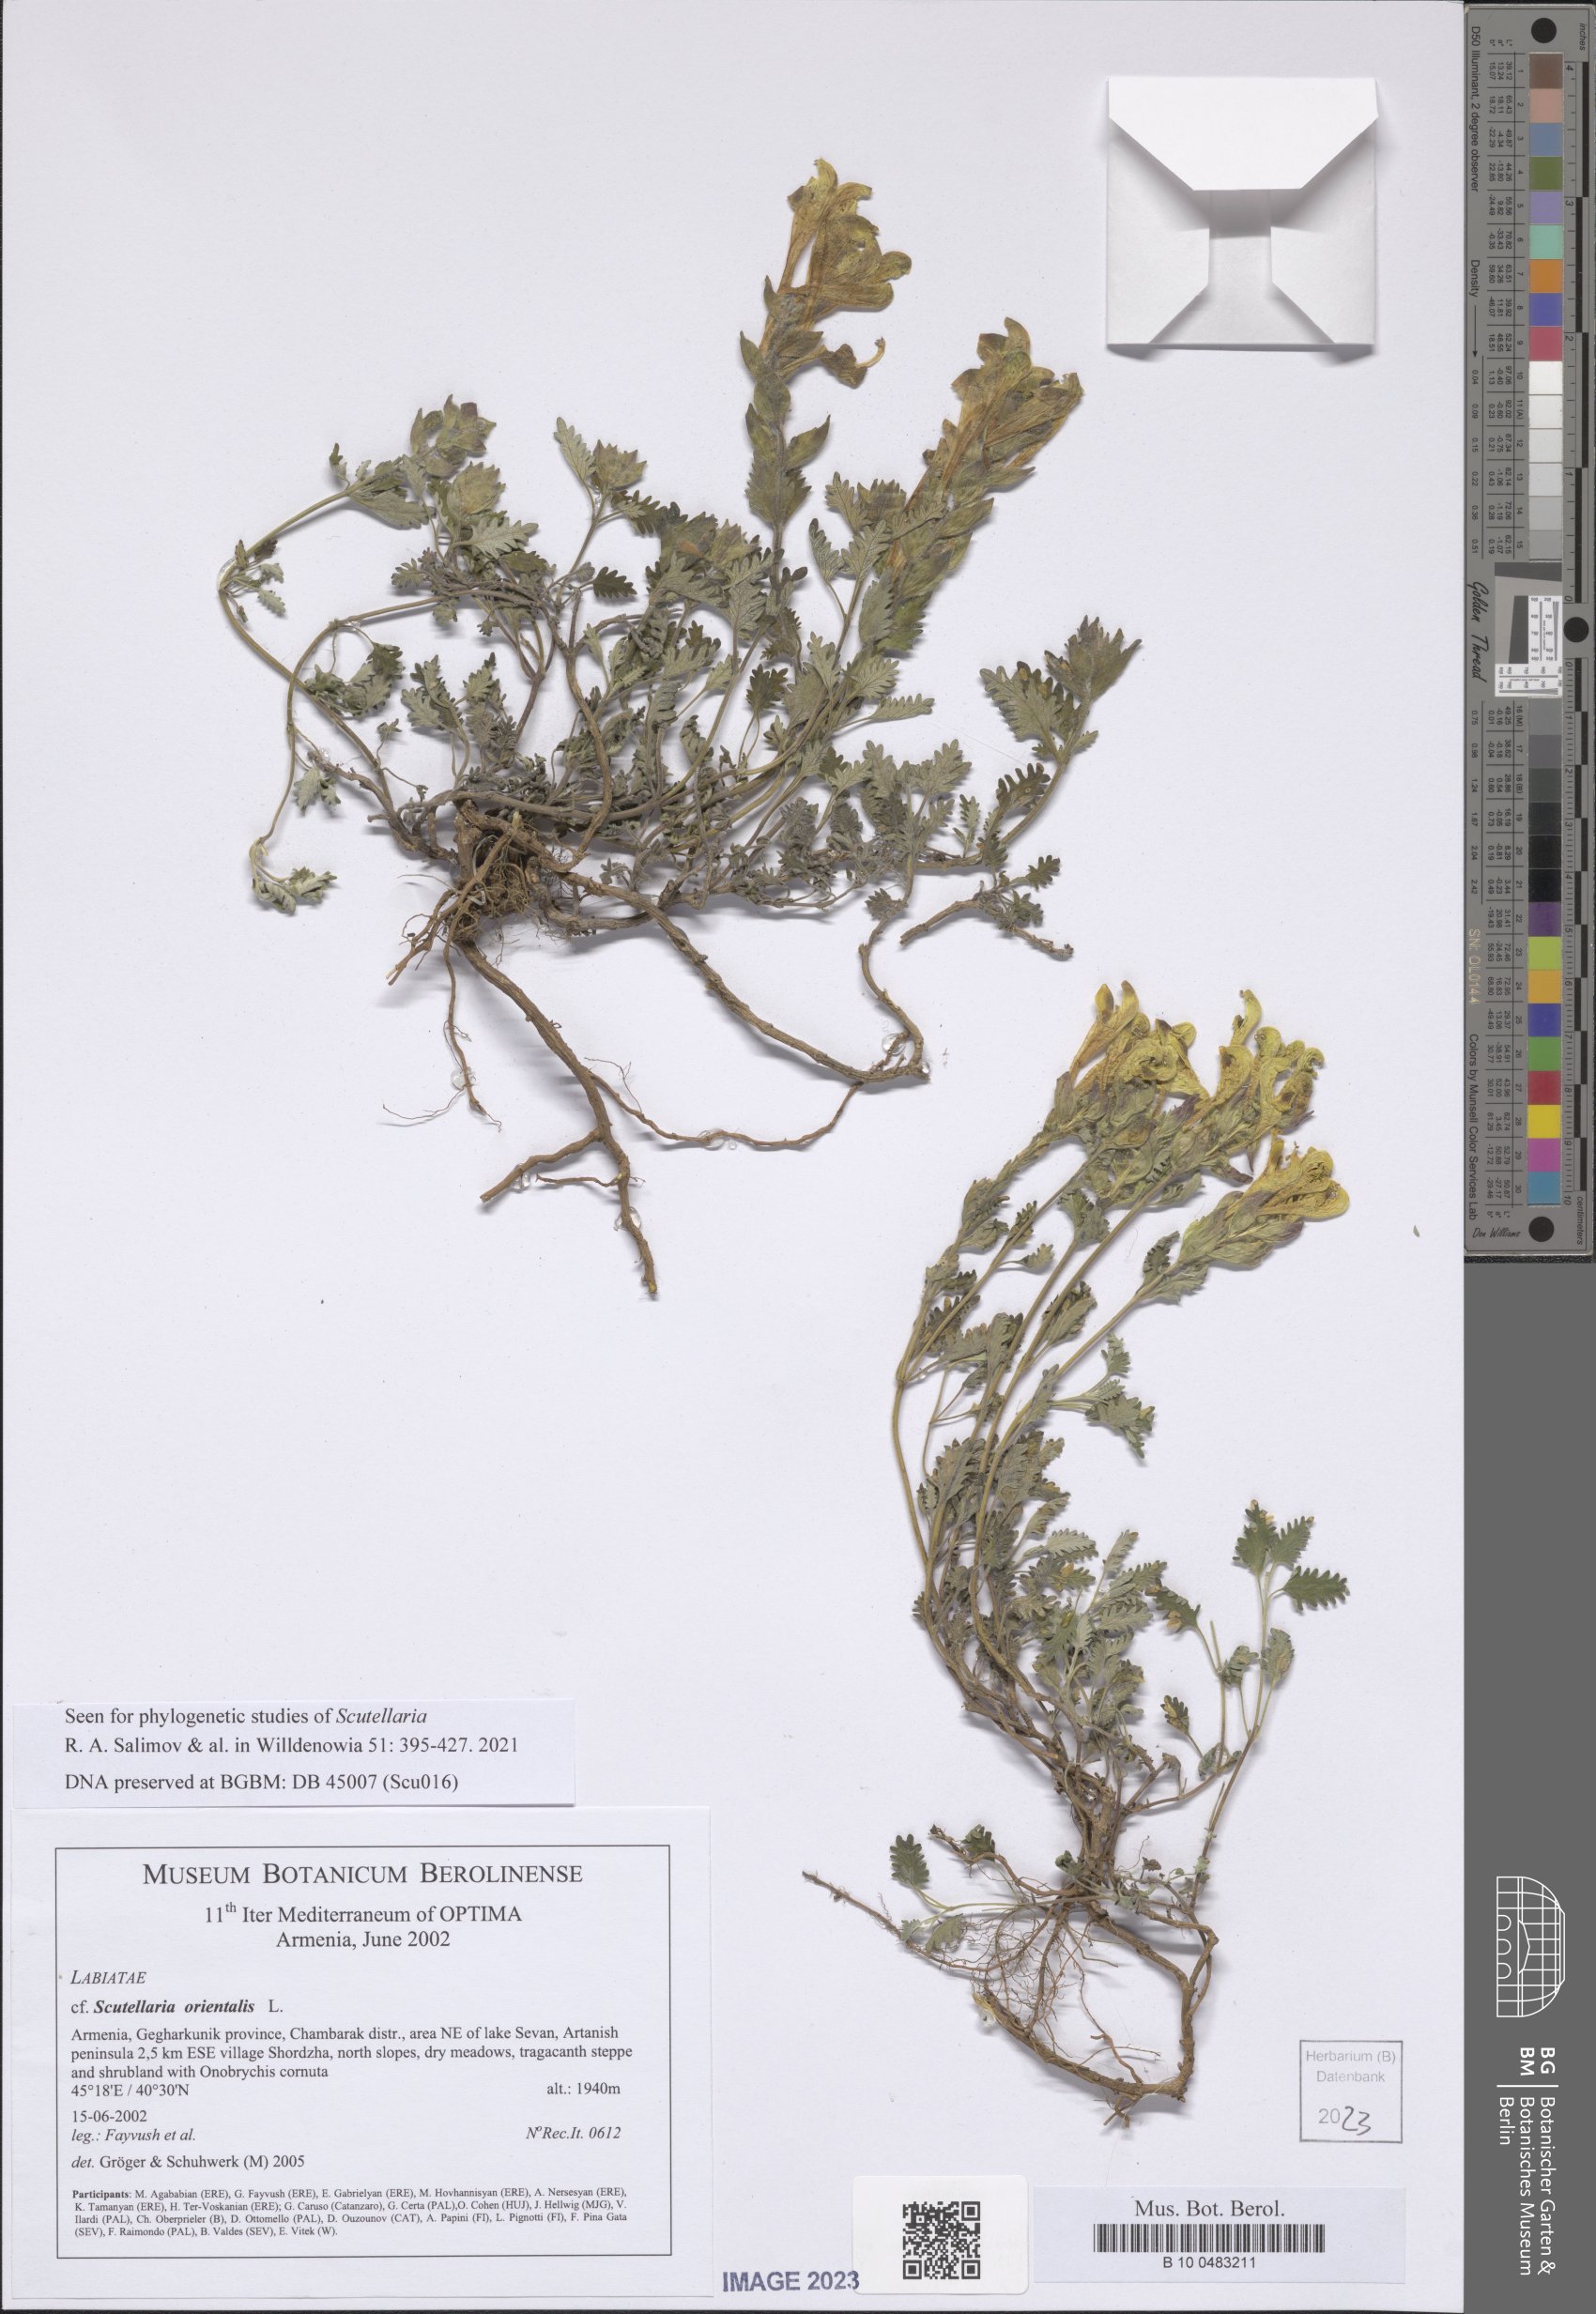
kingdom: Plantae
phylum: Tracheophyta
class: Magnoliopsida
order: Lamiales
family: Lamiaceae
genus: Scutellaria
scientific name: Scutellaria orientalis
